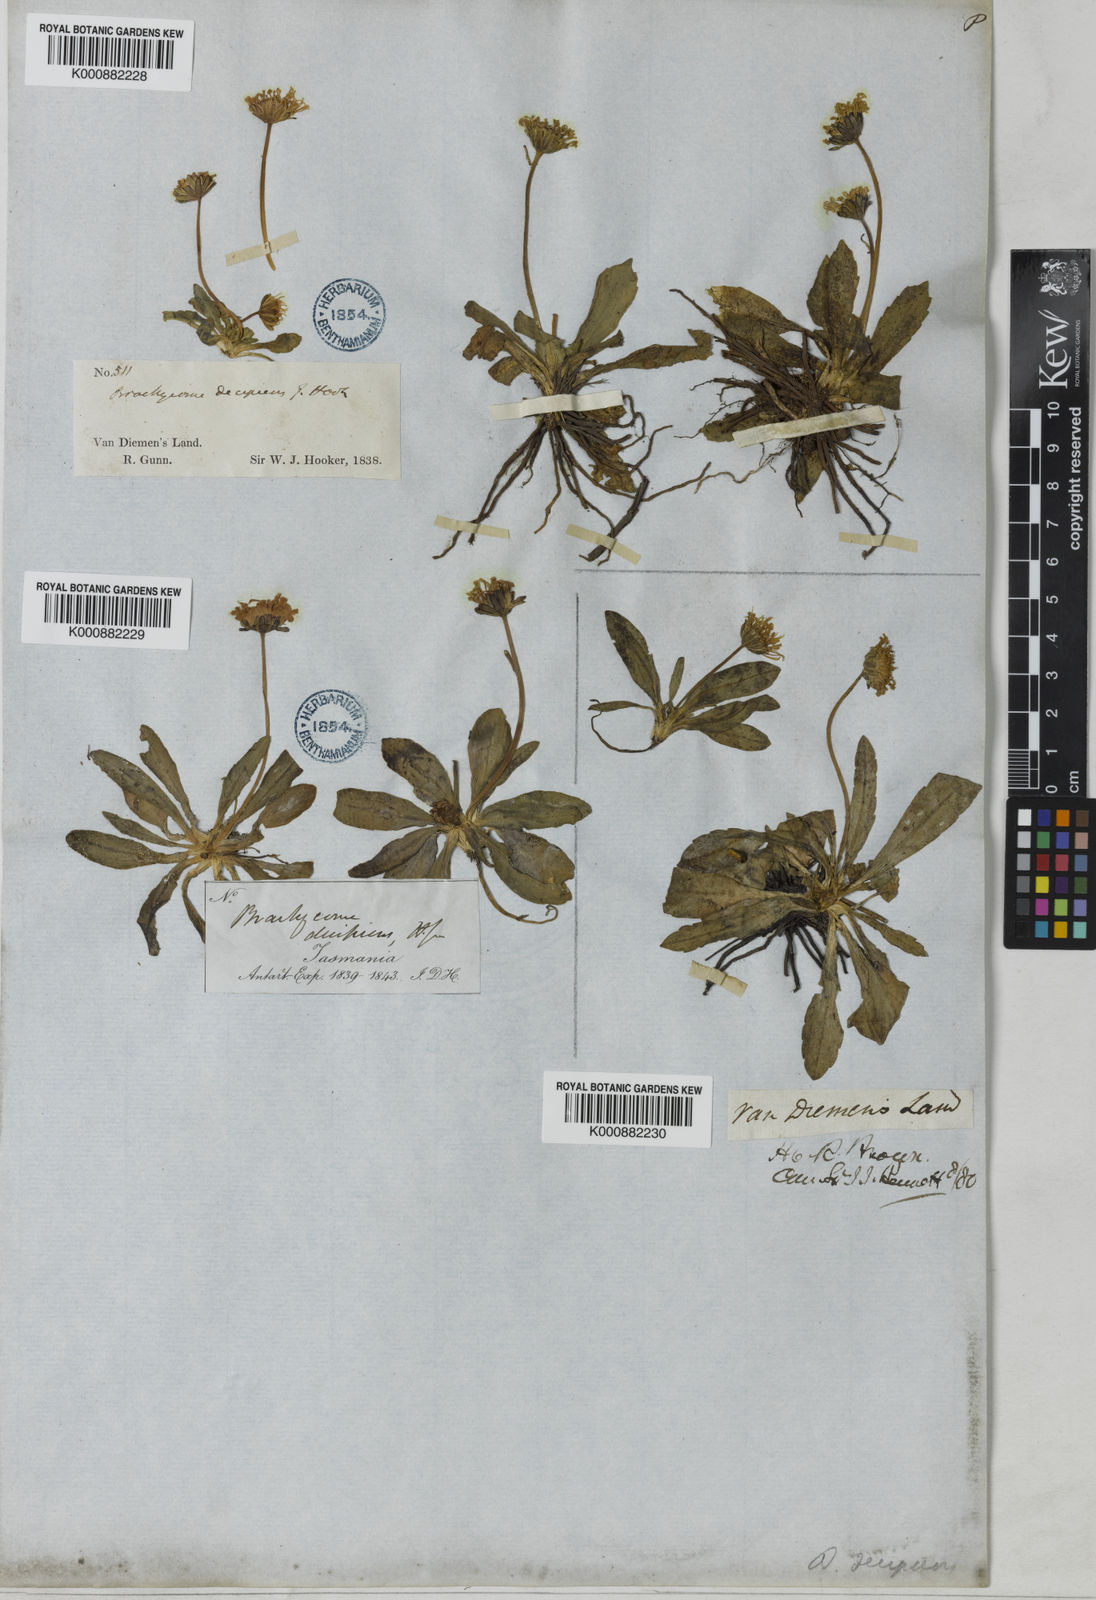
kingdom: Plantae
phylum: Tracheophyta
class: Magnoliopsida
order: Asterales
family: Asteraceae
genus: Brachyscome
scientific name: Brachyscome decipiens
